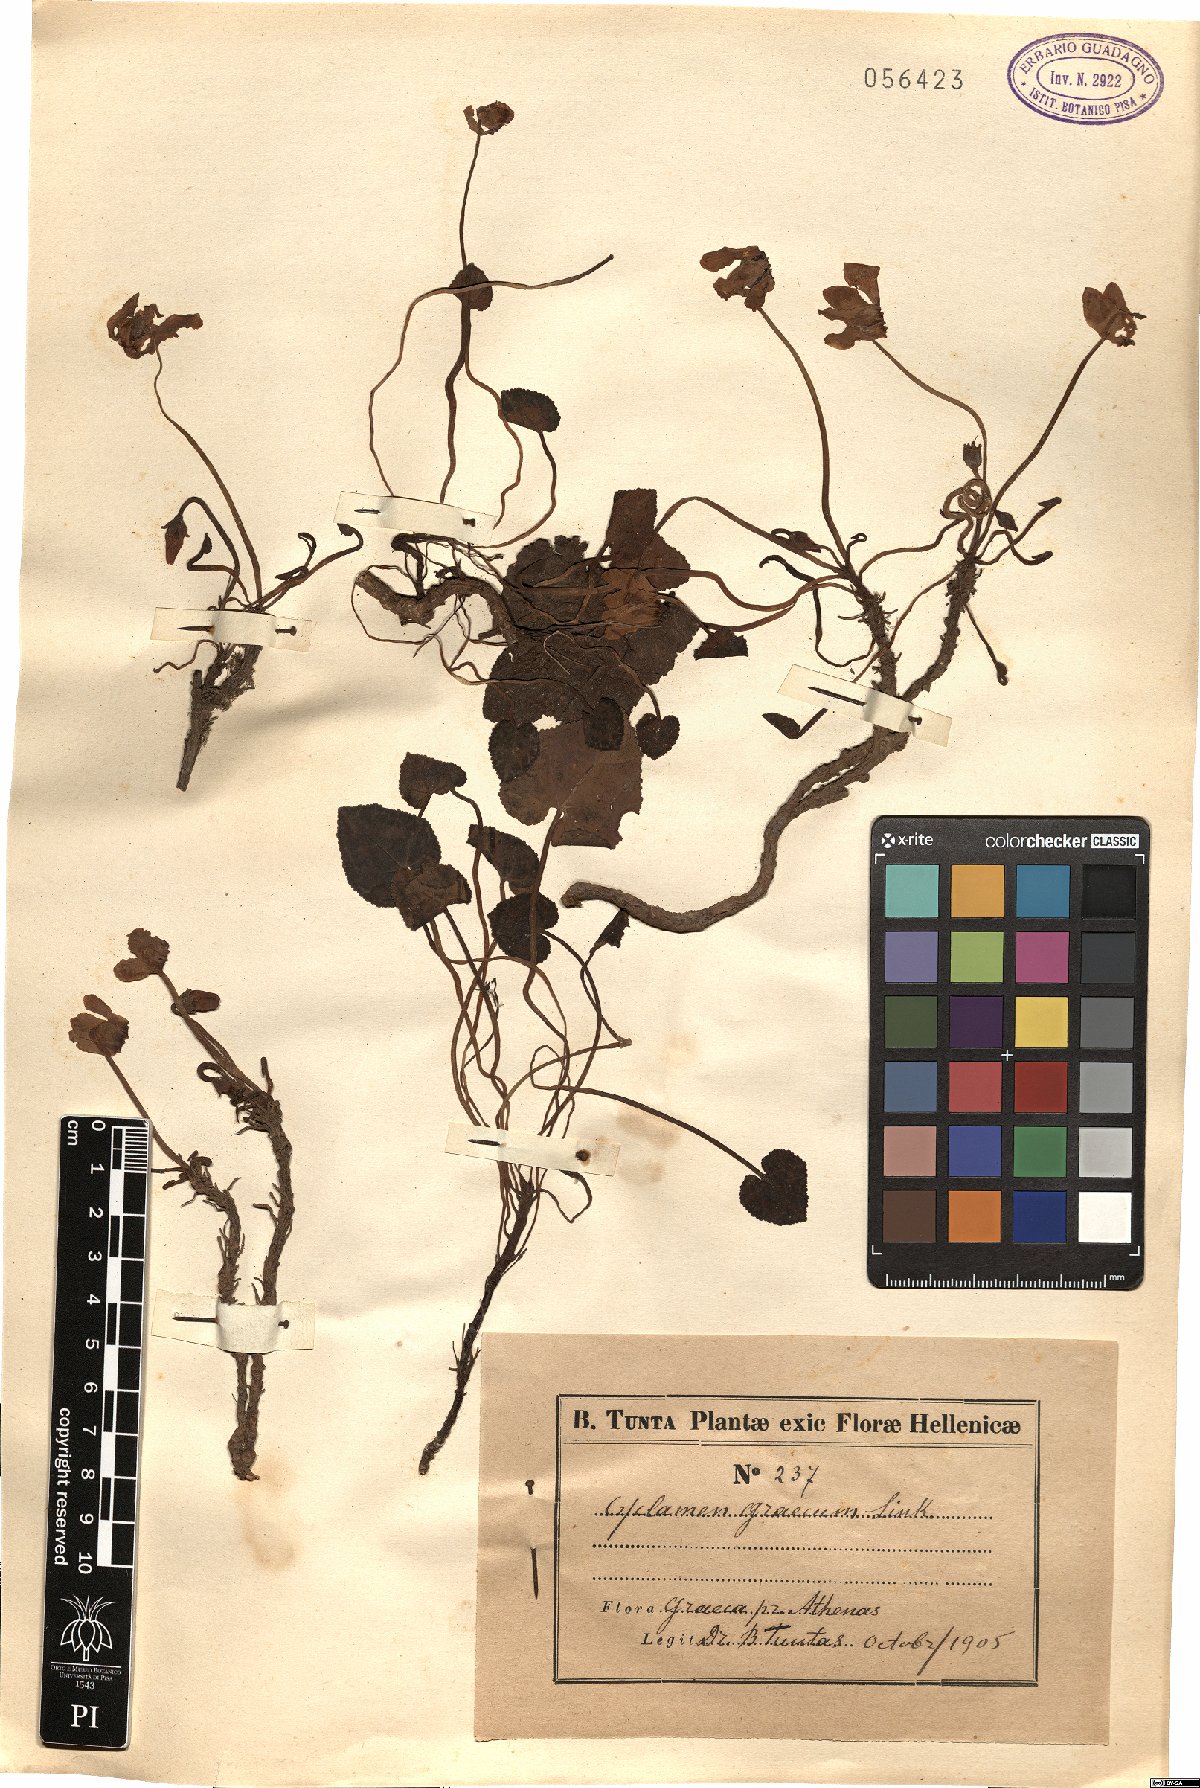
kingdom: Plantae
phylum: Tracheophyta
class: Magnoliopsida
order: Ericales
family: Primulaceae
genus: Cyclamen
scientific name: Cyclamen graecum
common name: Greek cyclamen
